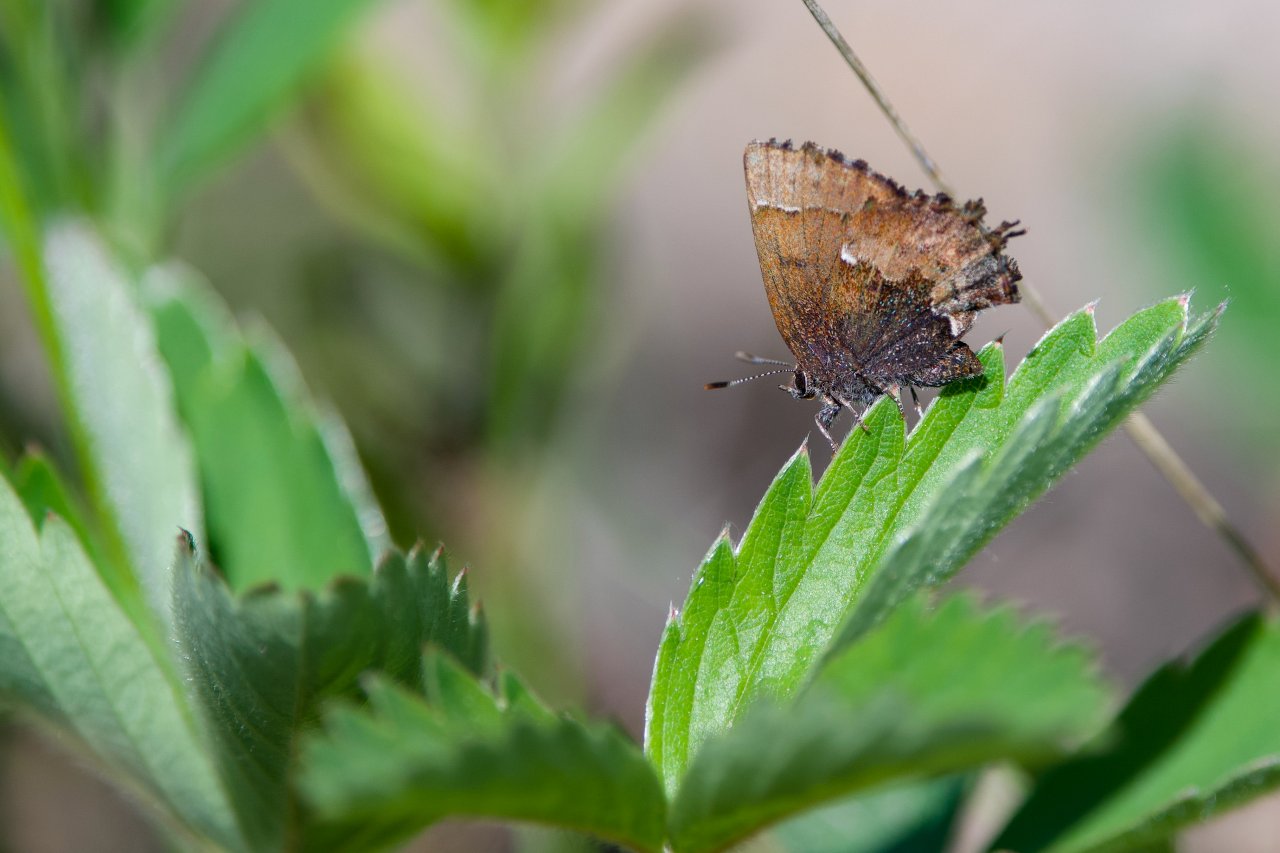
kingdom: Animalia
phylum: Arthropoda
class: Insecta
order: Lepidoptera
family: Lycaenidae
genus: Incisalia
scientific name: Incisalia henrici
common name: Henry's Elfin
